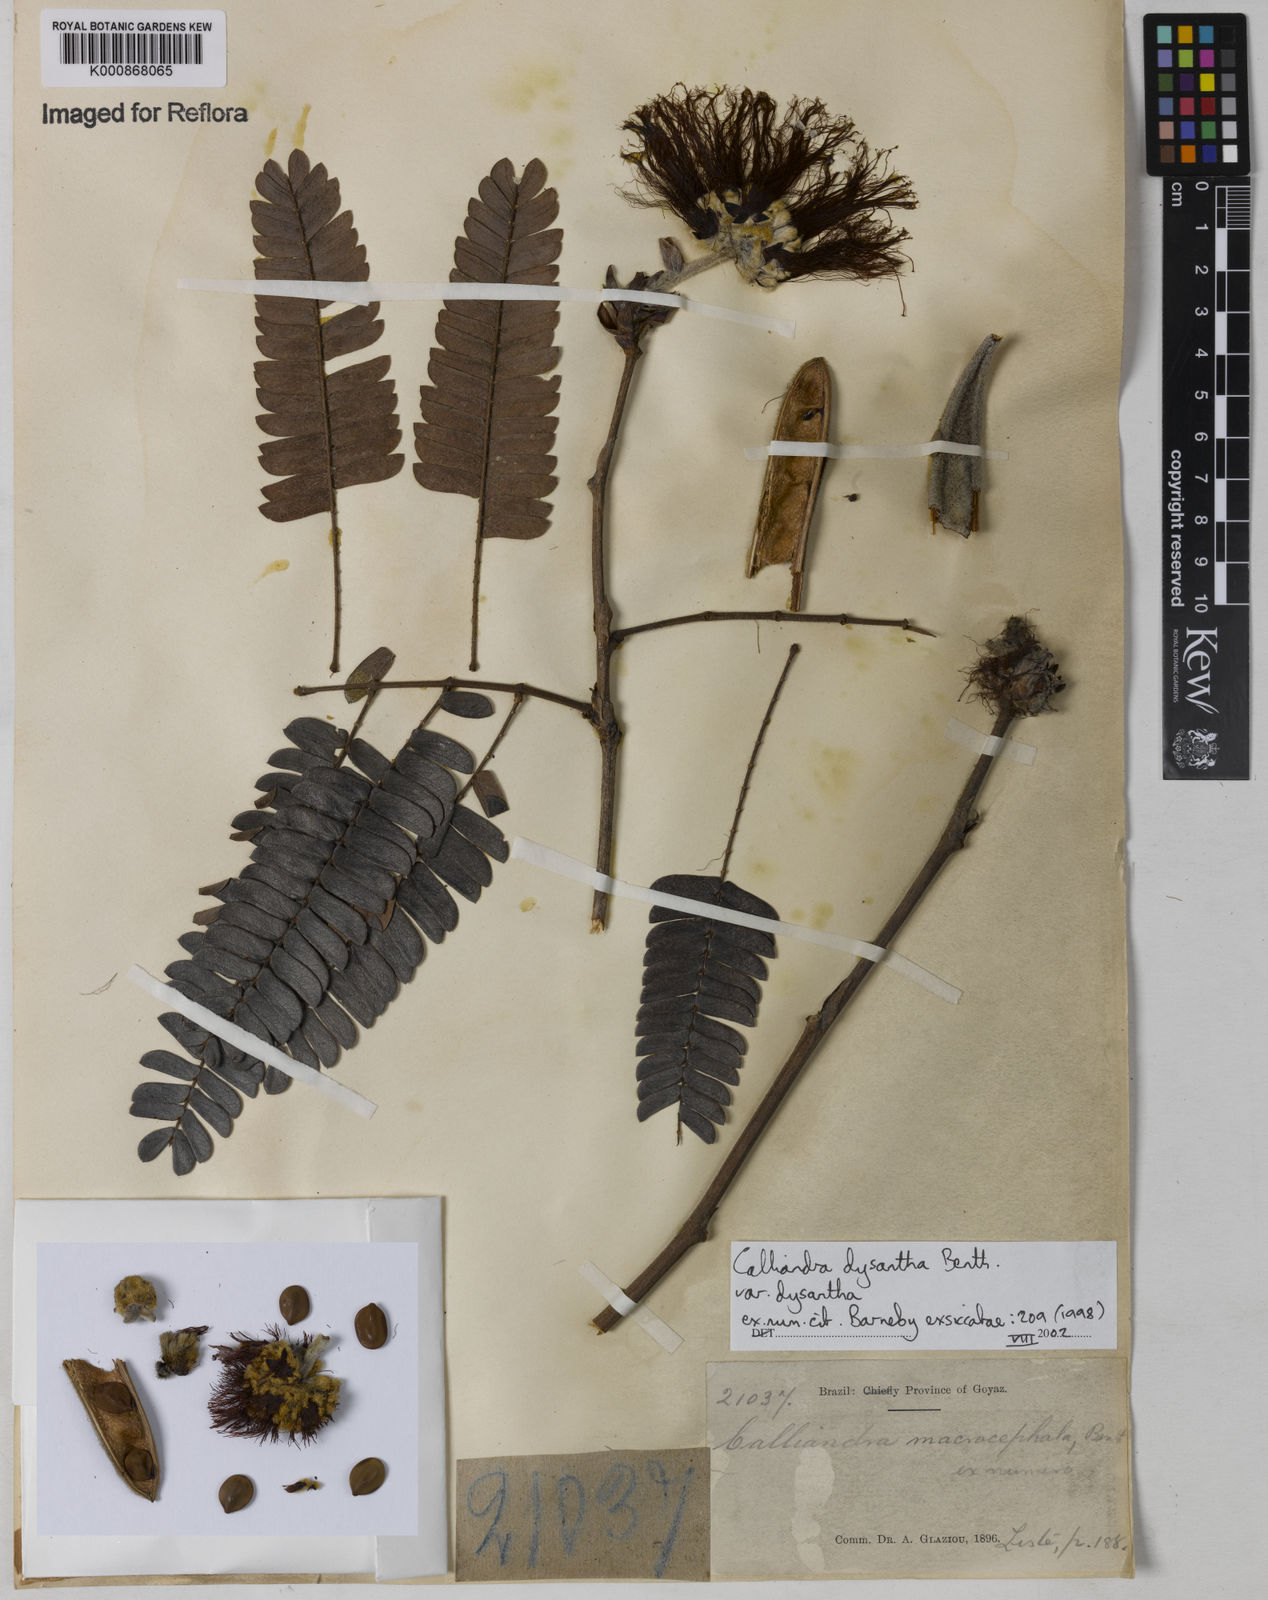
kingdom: Plantae
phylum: Tracheophyta
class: Magnoliopsida
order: Fabales
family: Fabaceae
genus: Calliandra
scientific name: Calliandra dysantha
